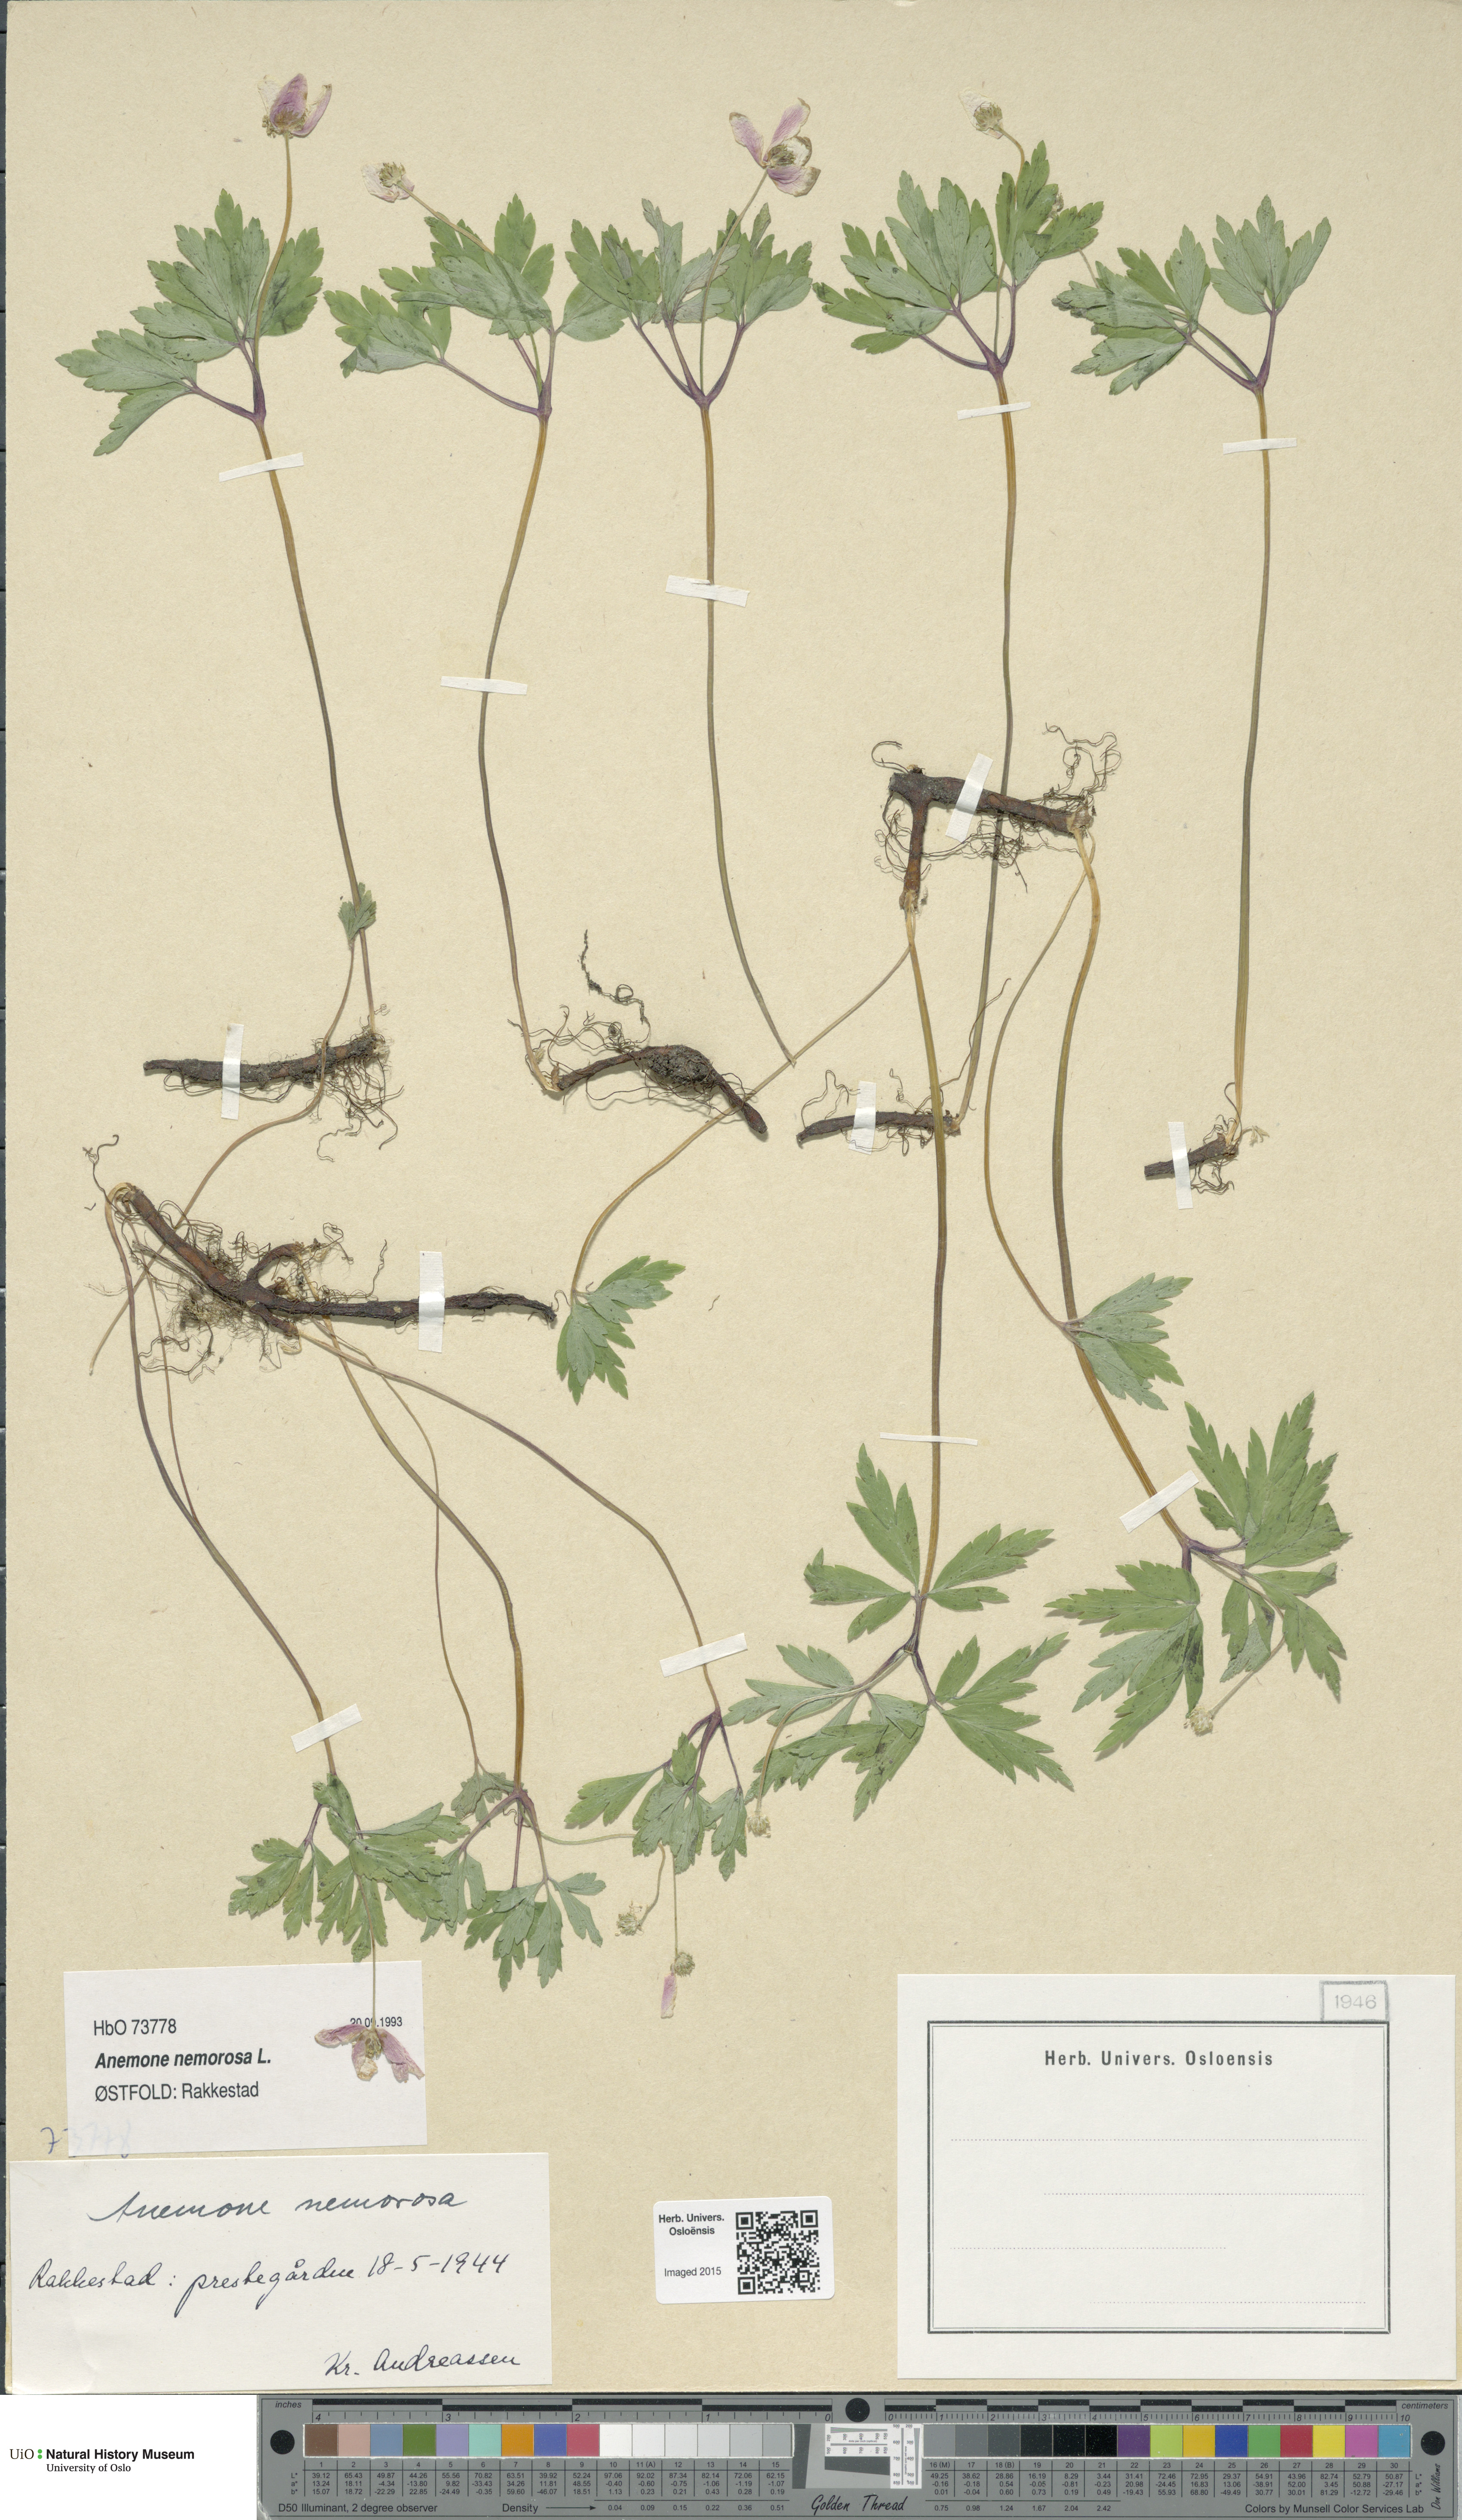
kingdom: Plantae
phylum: Tracheophyta
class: Magnoliopsida
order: Ranunculales
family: Ranunculaceae
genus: Anemone
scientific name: Anemone nemorosa
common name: Wood anemone
